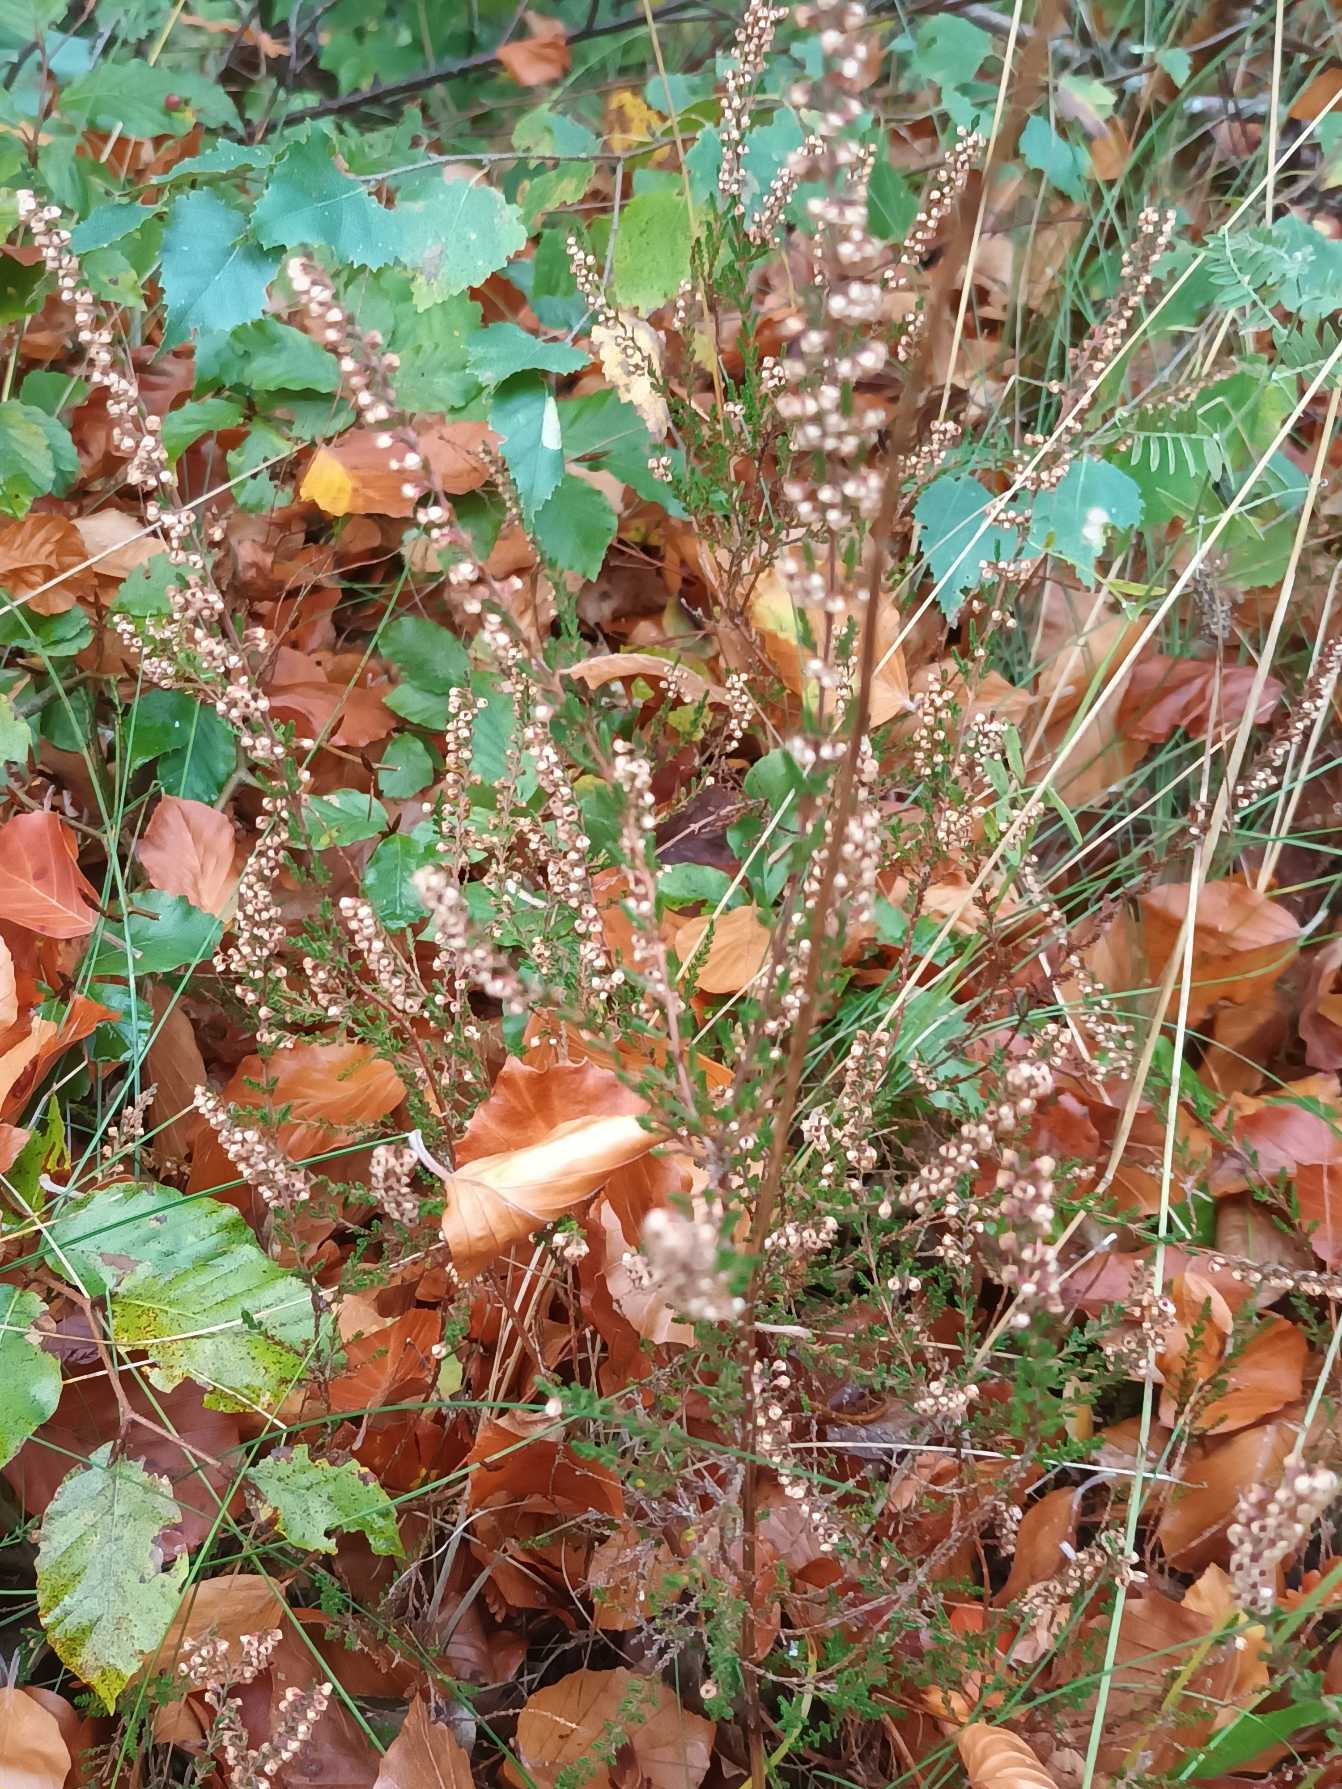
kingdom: Plantae
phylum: Tracheophyta
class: Magnoliopsida
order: Ericales
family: Ericaceae
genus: Calluna
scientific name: Calluna vulgaris
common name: Hedelyng
